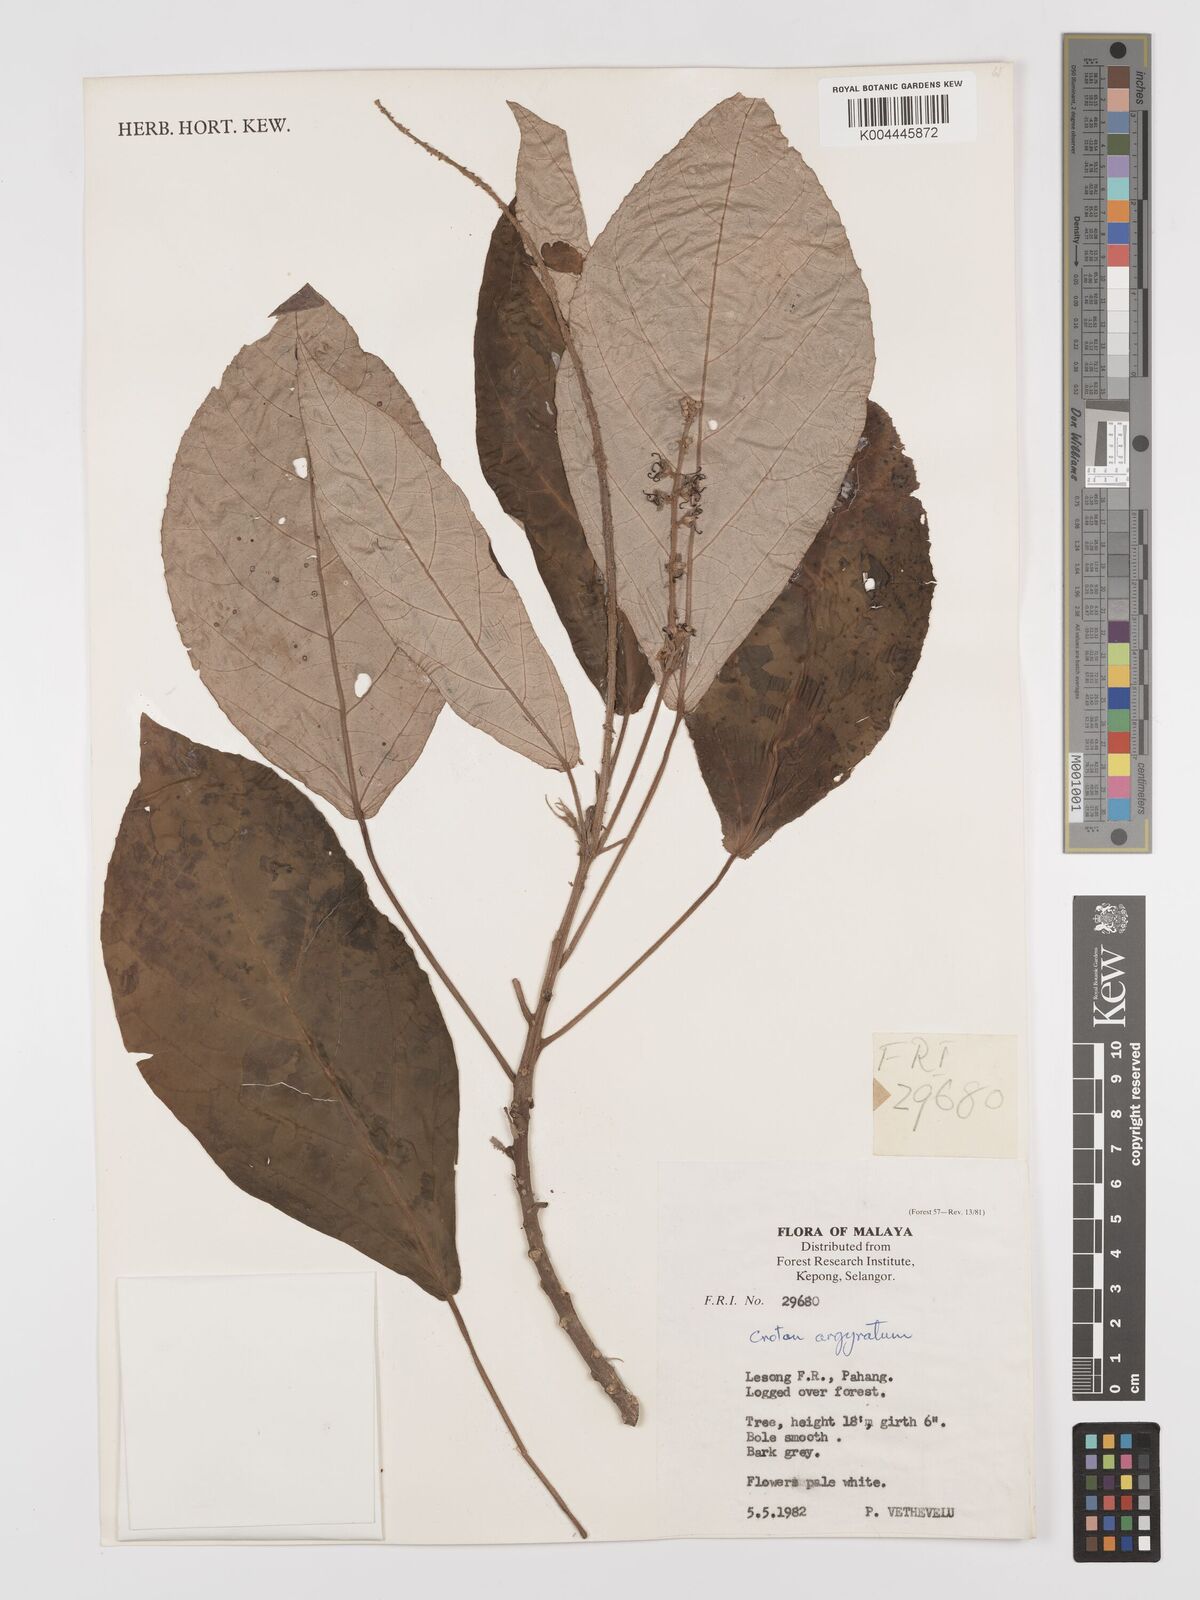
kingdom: Plantae
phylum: Tracheophyta
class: Magnoliopsida
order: Malpighiales
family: Euphorbiaceae
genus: Croton
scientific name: Croton argyratus
